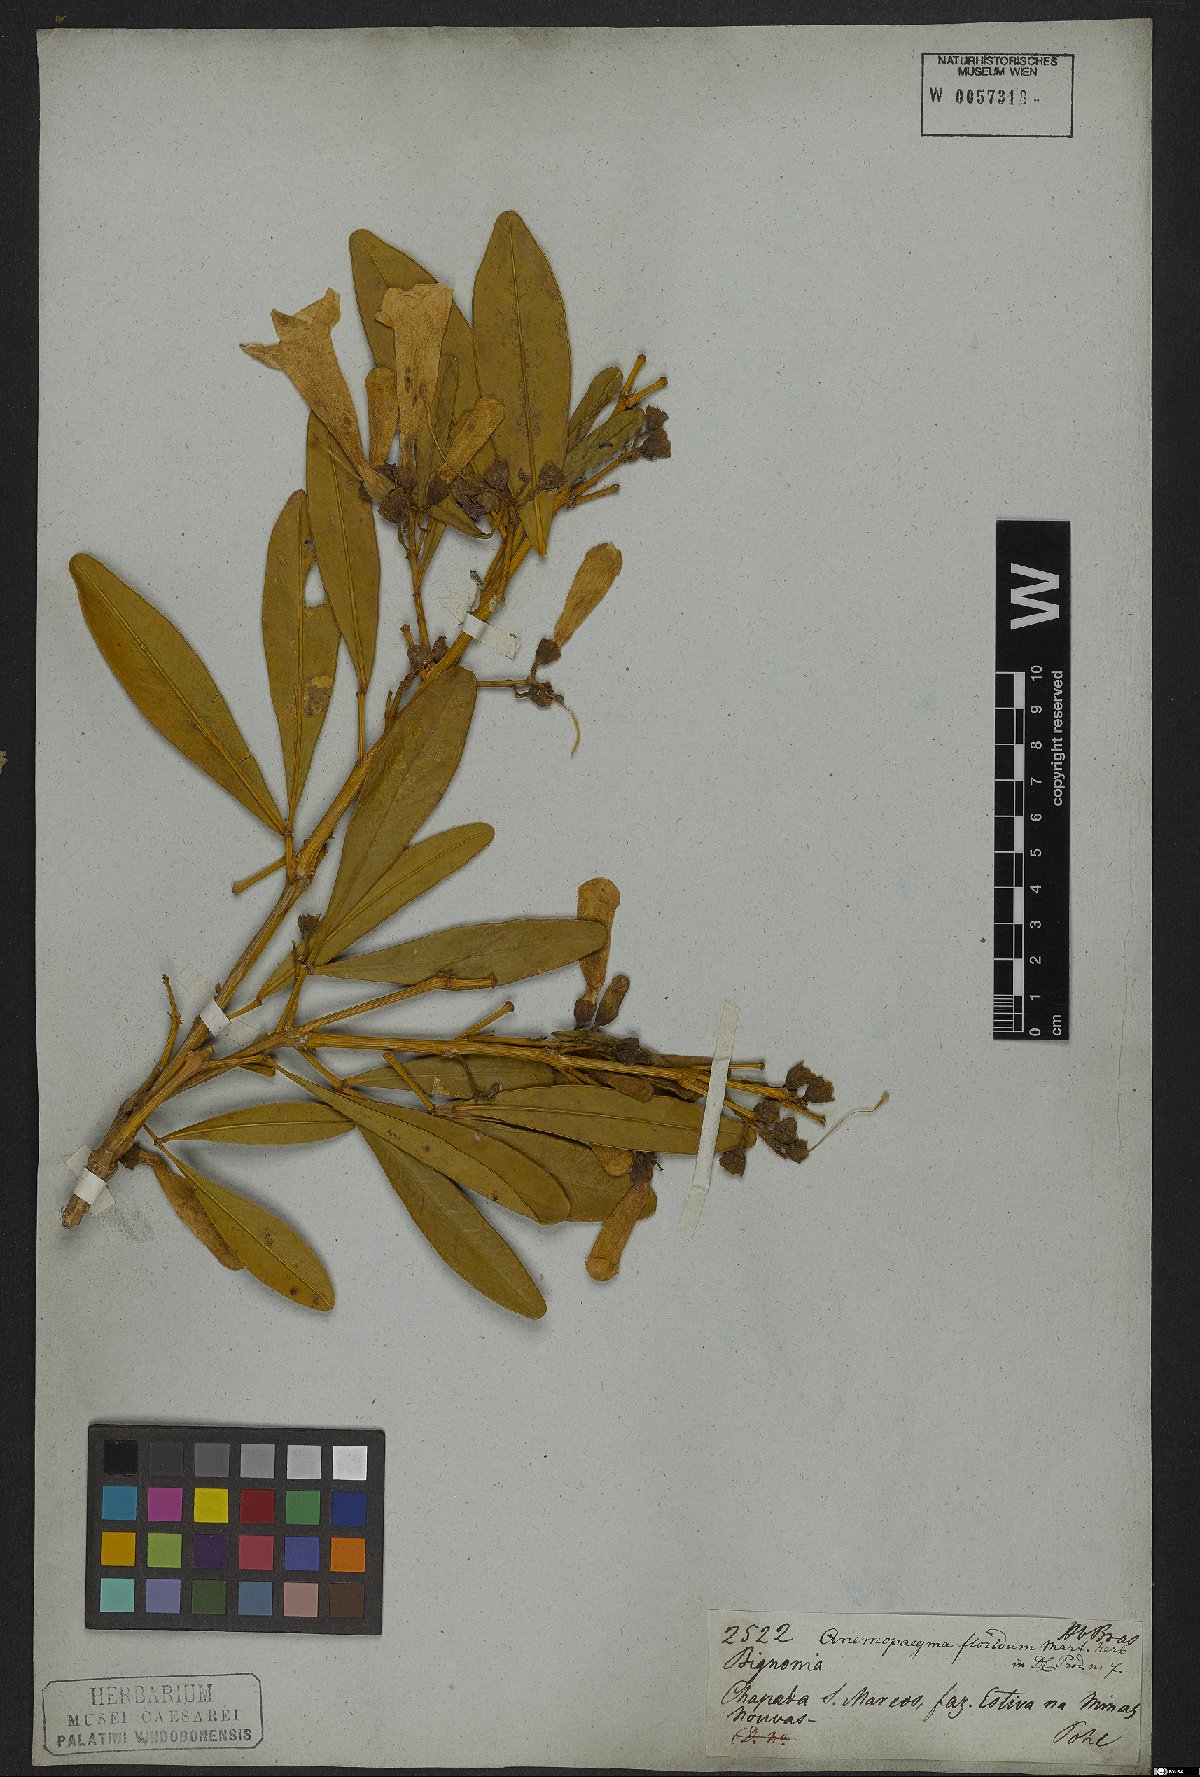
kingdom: Plantae
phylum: Tracheophyta
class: Magnoliopsida
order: Lamiales
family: Bignoniaceae
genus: Anemopaegma
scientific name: Anemopaegma glaucum
